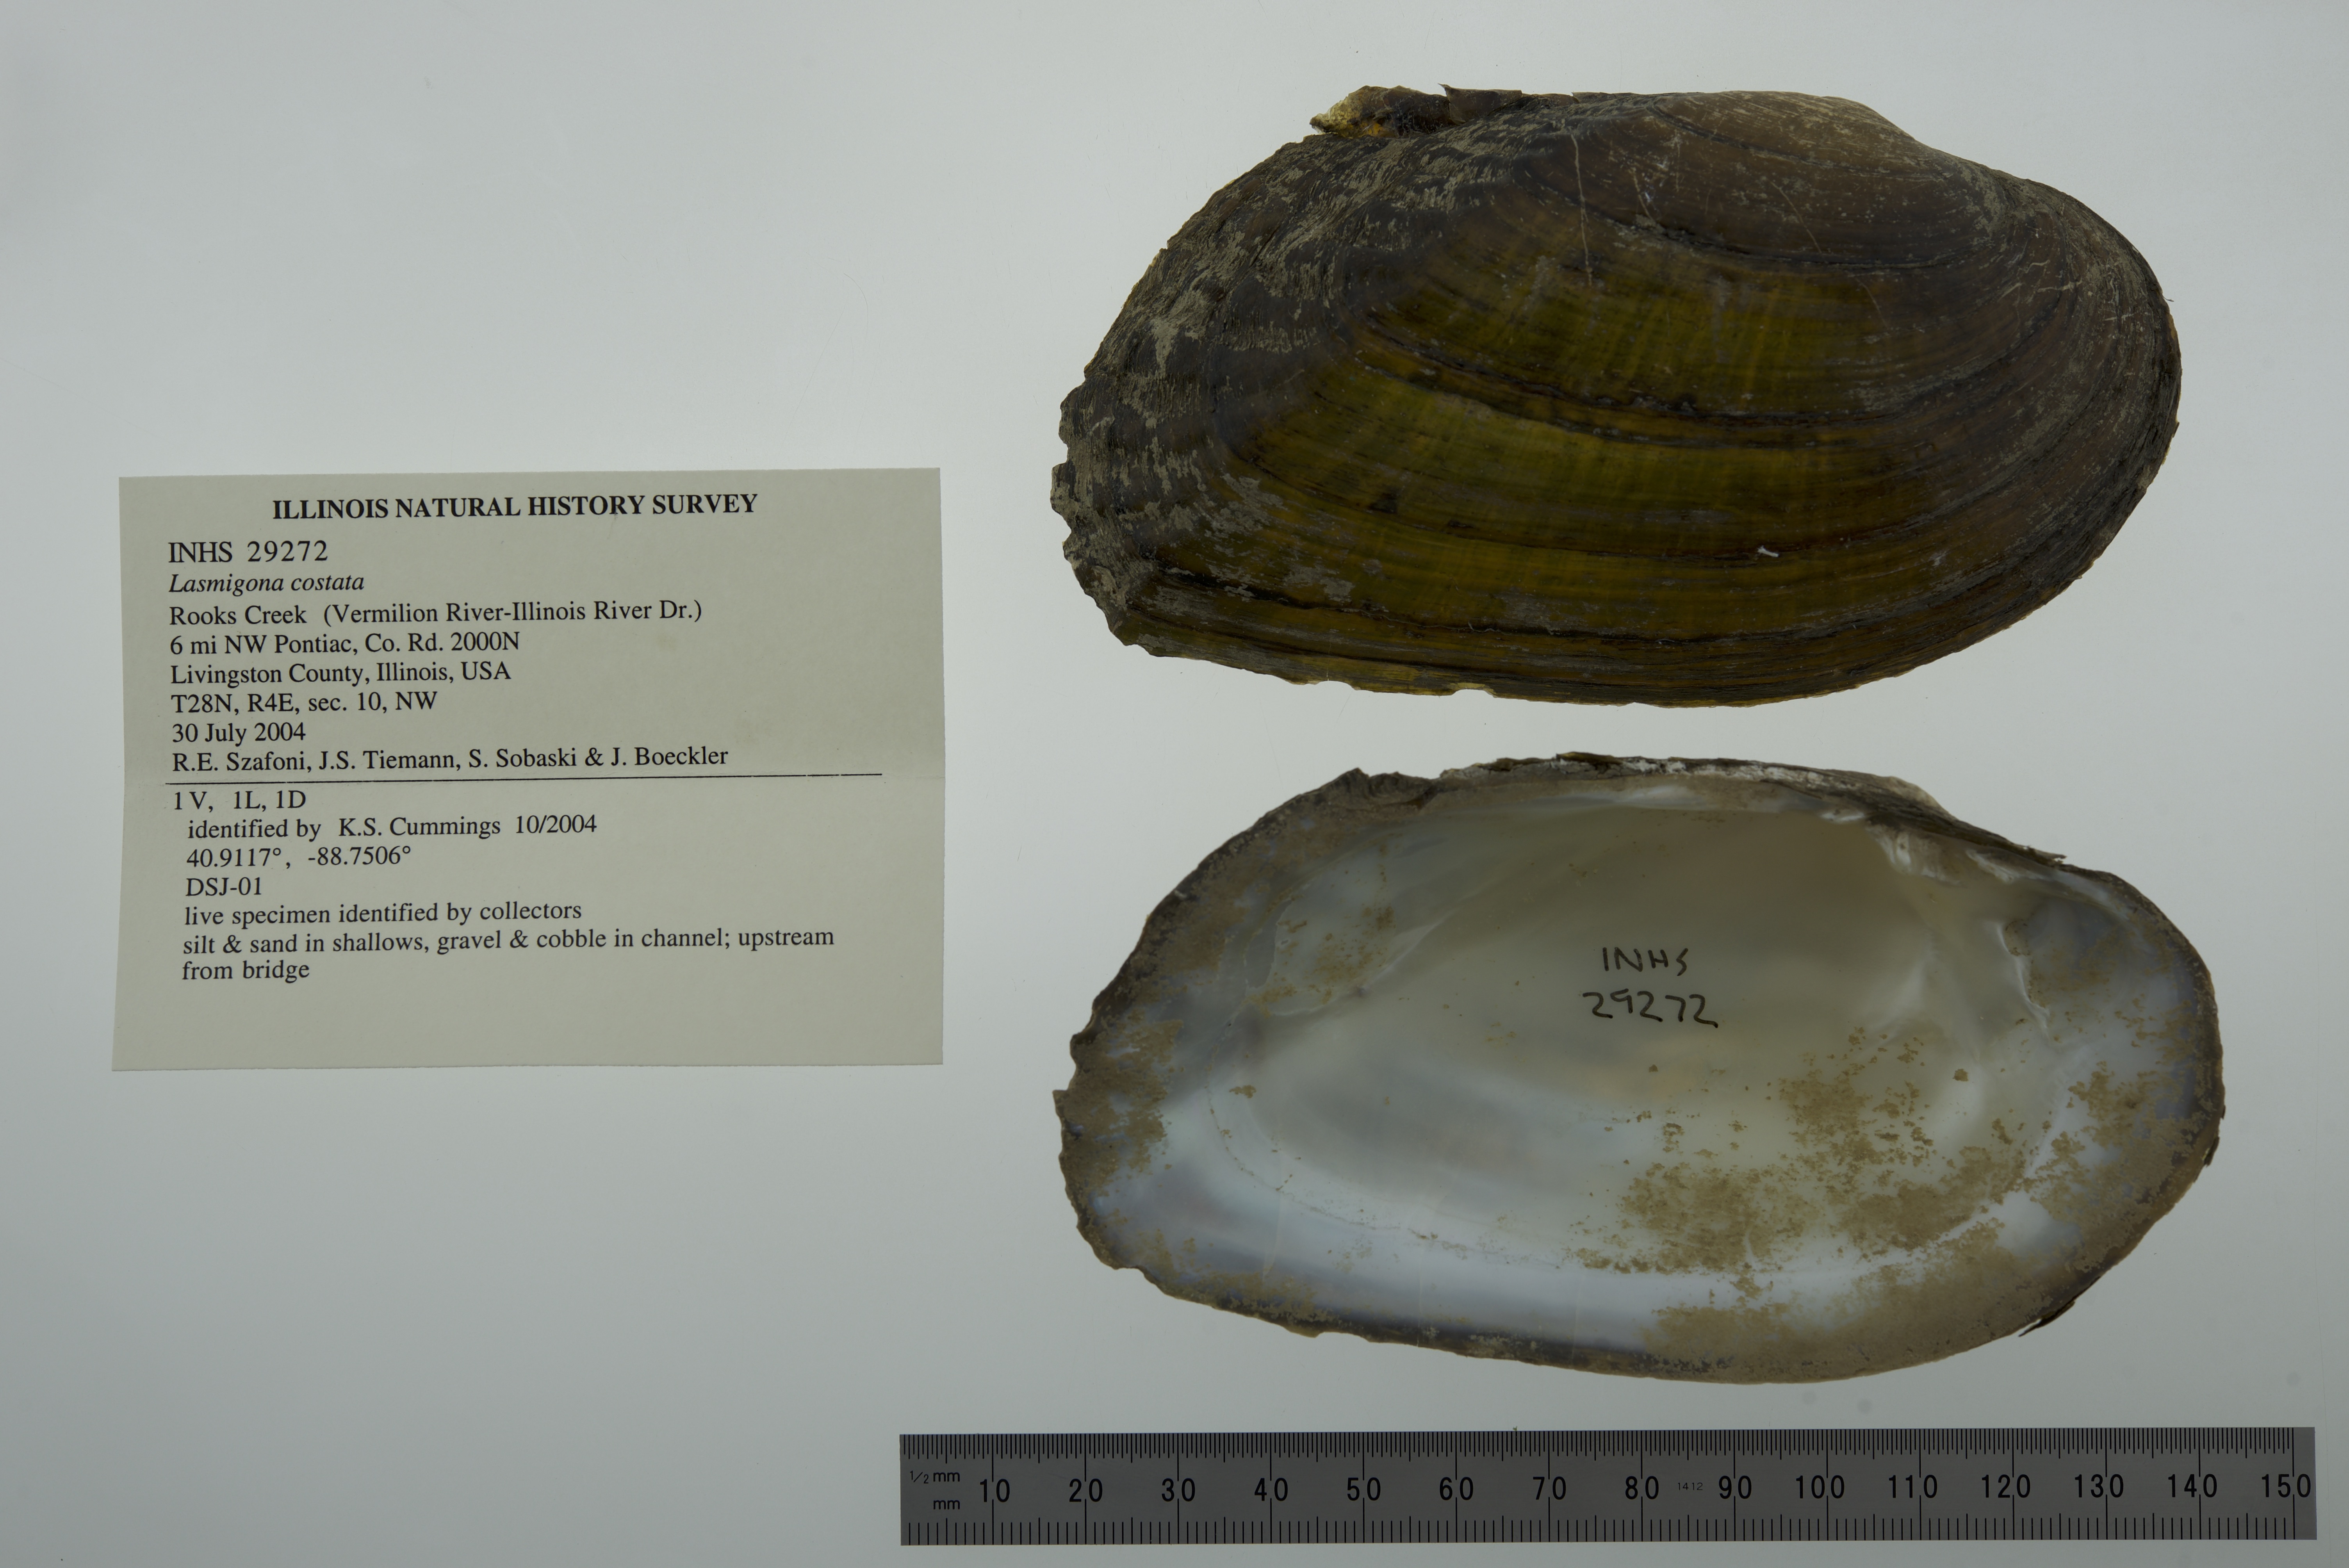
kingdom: Animalia
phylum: Mollusca
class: Bivalvia
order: Unionida
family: Unionidae
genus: Lasmigona
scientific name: Lasmigona costata
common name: Flutedshell
